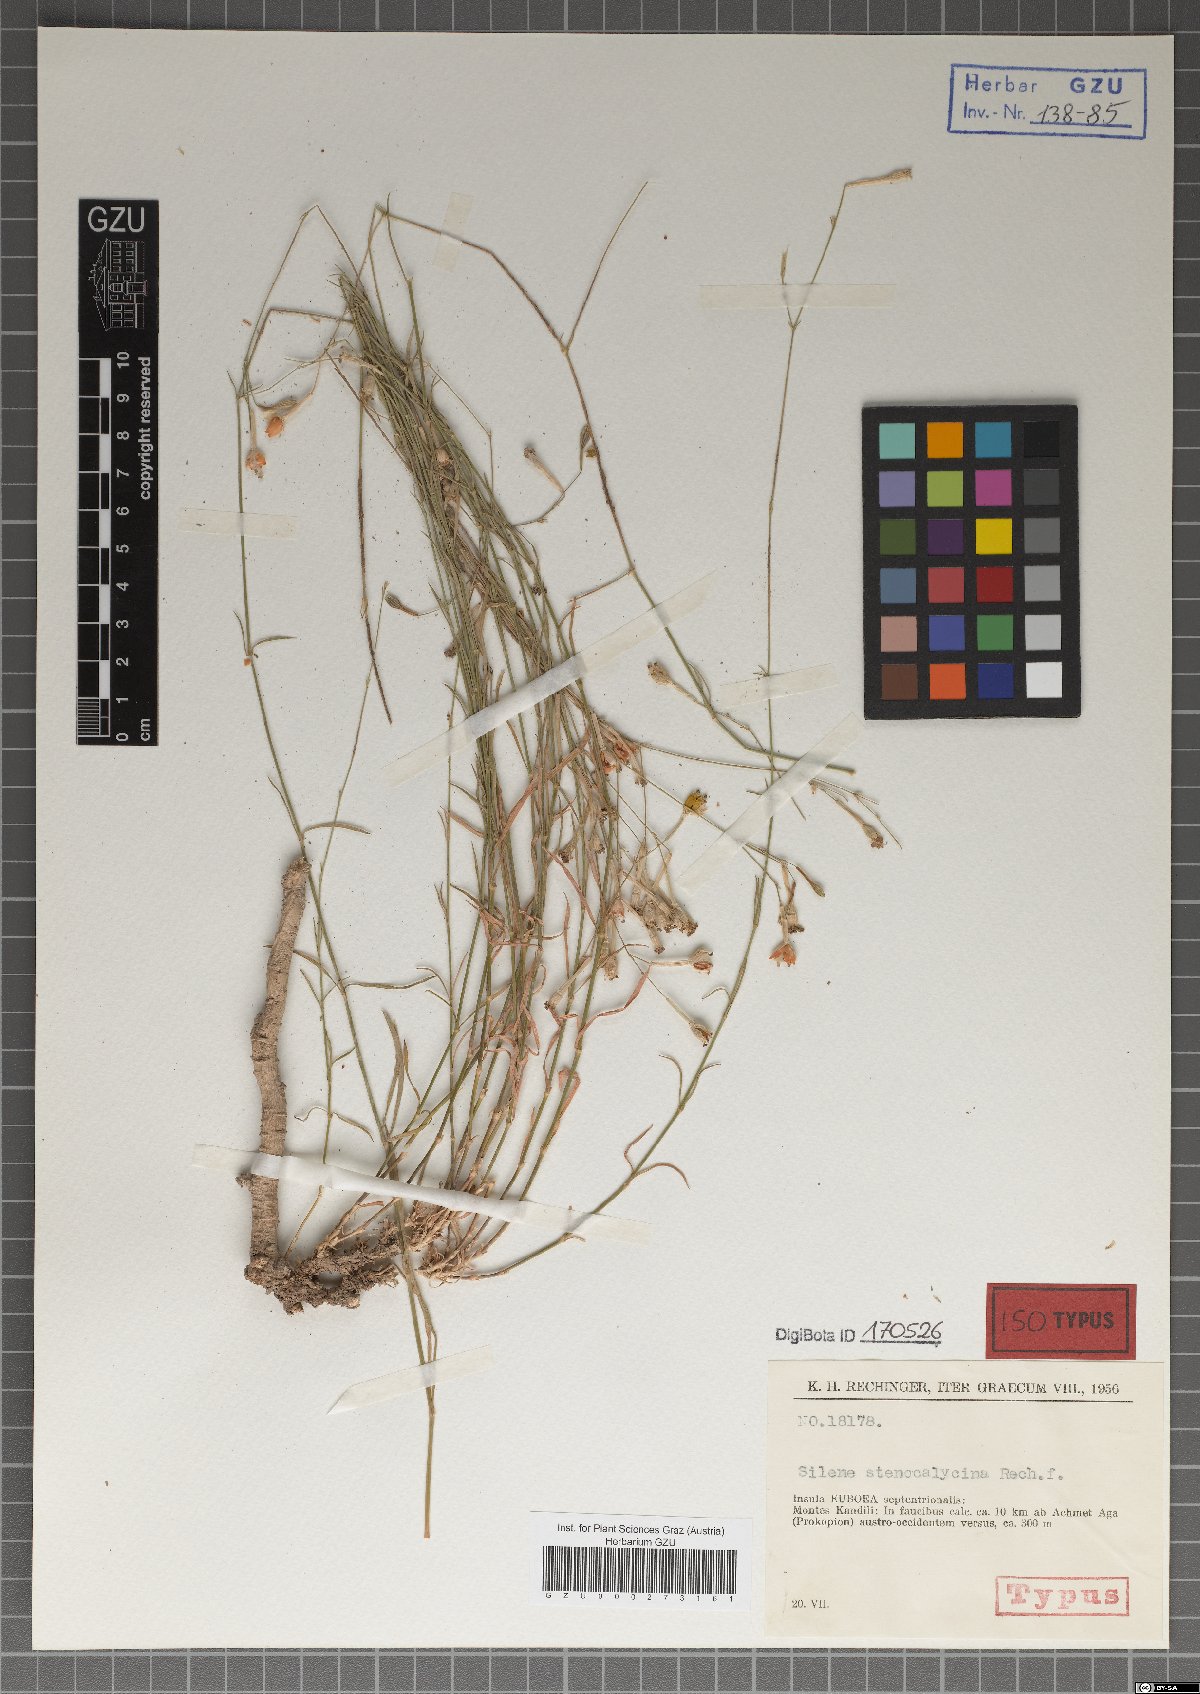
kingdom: Plantae
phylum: Tracheophyta
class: Magnoliopsida
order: Caryophyllales
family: Caryophyllaceae
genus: Silene
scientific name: Silene multicaulis
